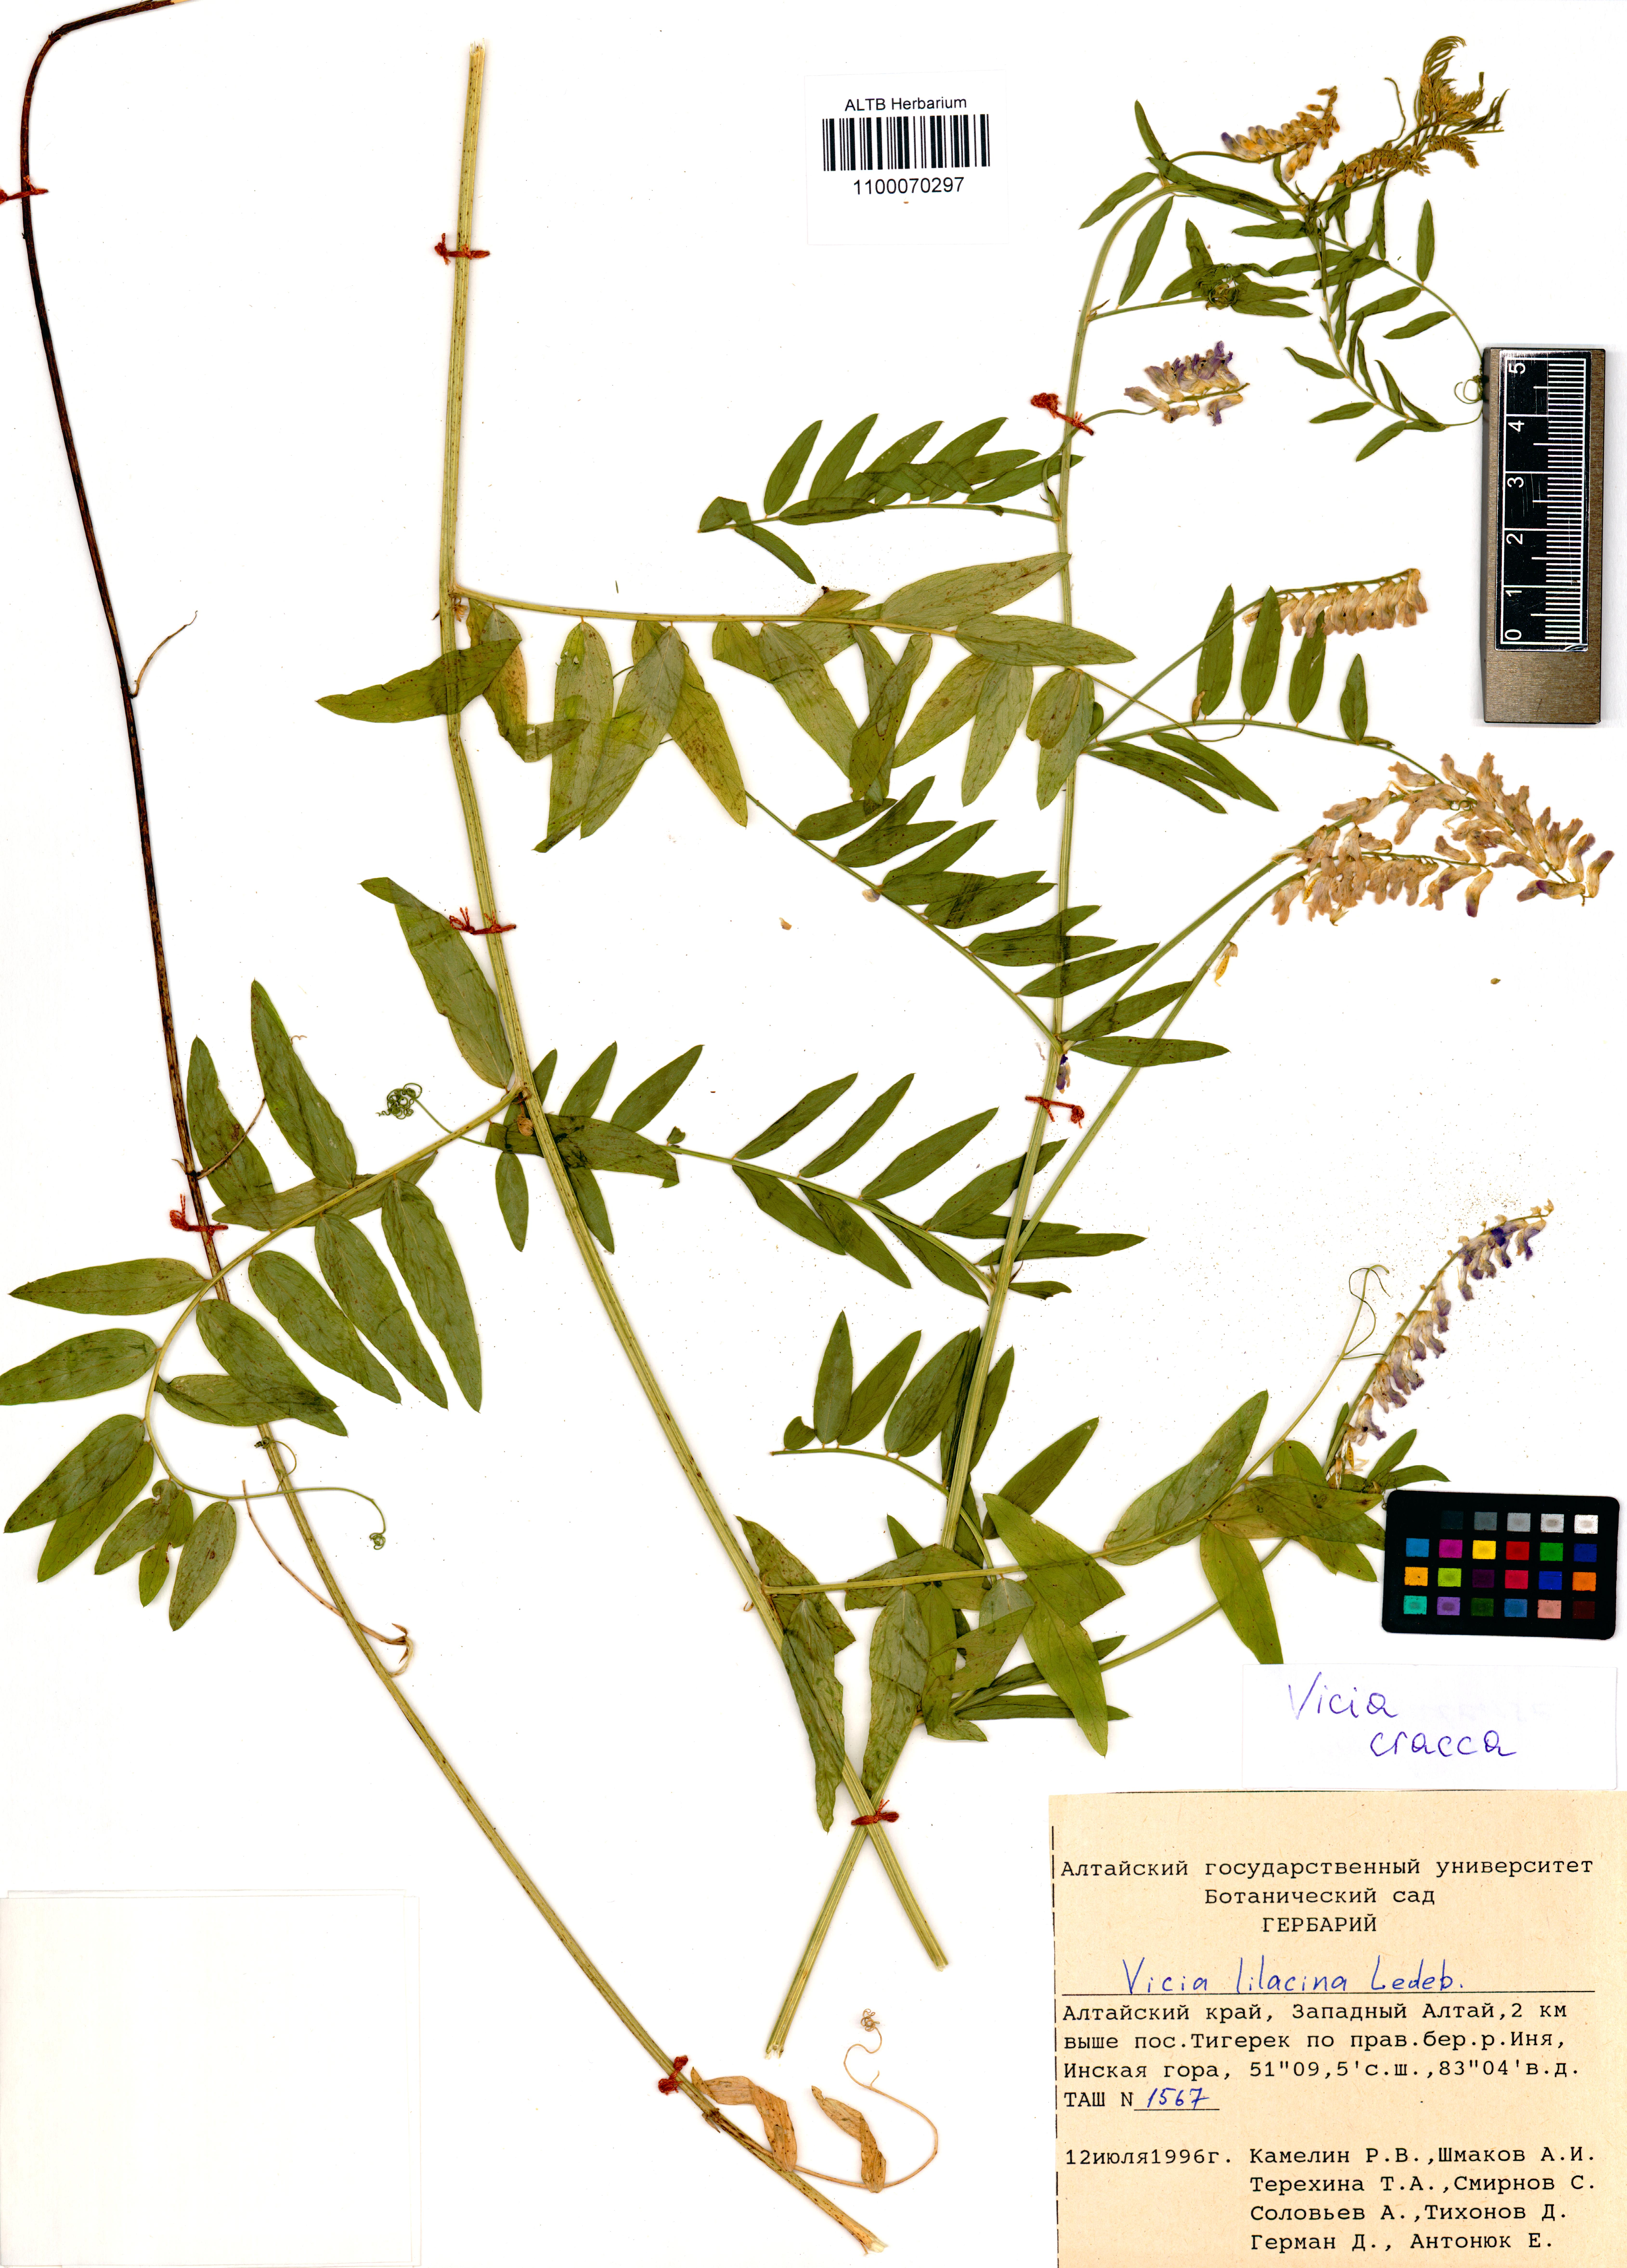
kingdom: Plantae
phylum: Tracheophyta
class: Magnoliopsida
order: Fabales
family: Fabaceae
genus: Vicia
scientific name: Vicia cracca
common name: Bird vetch
